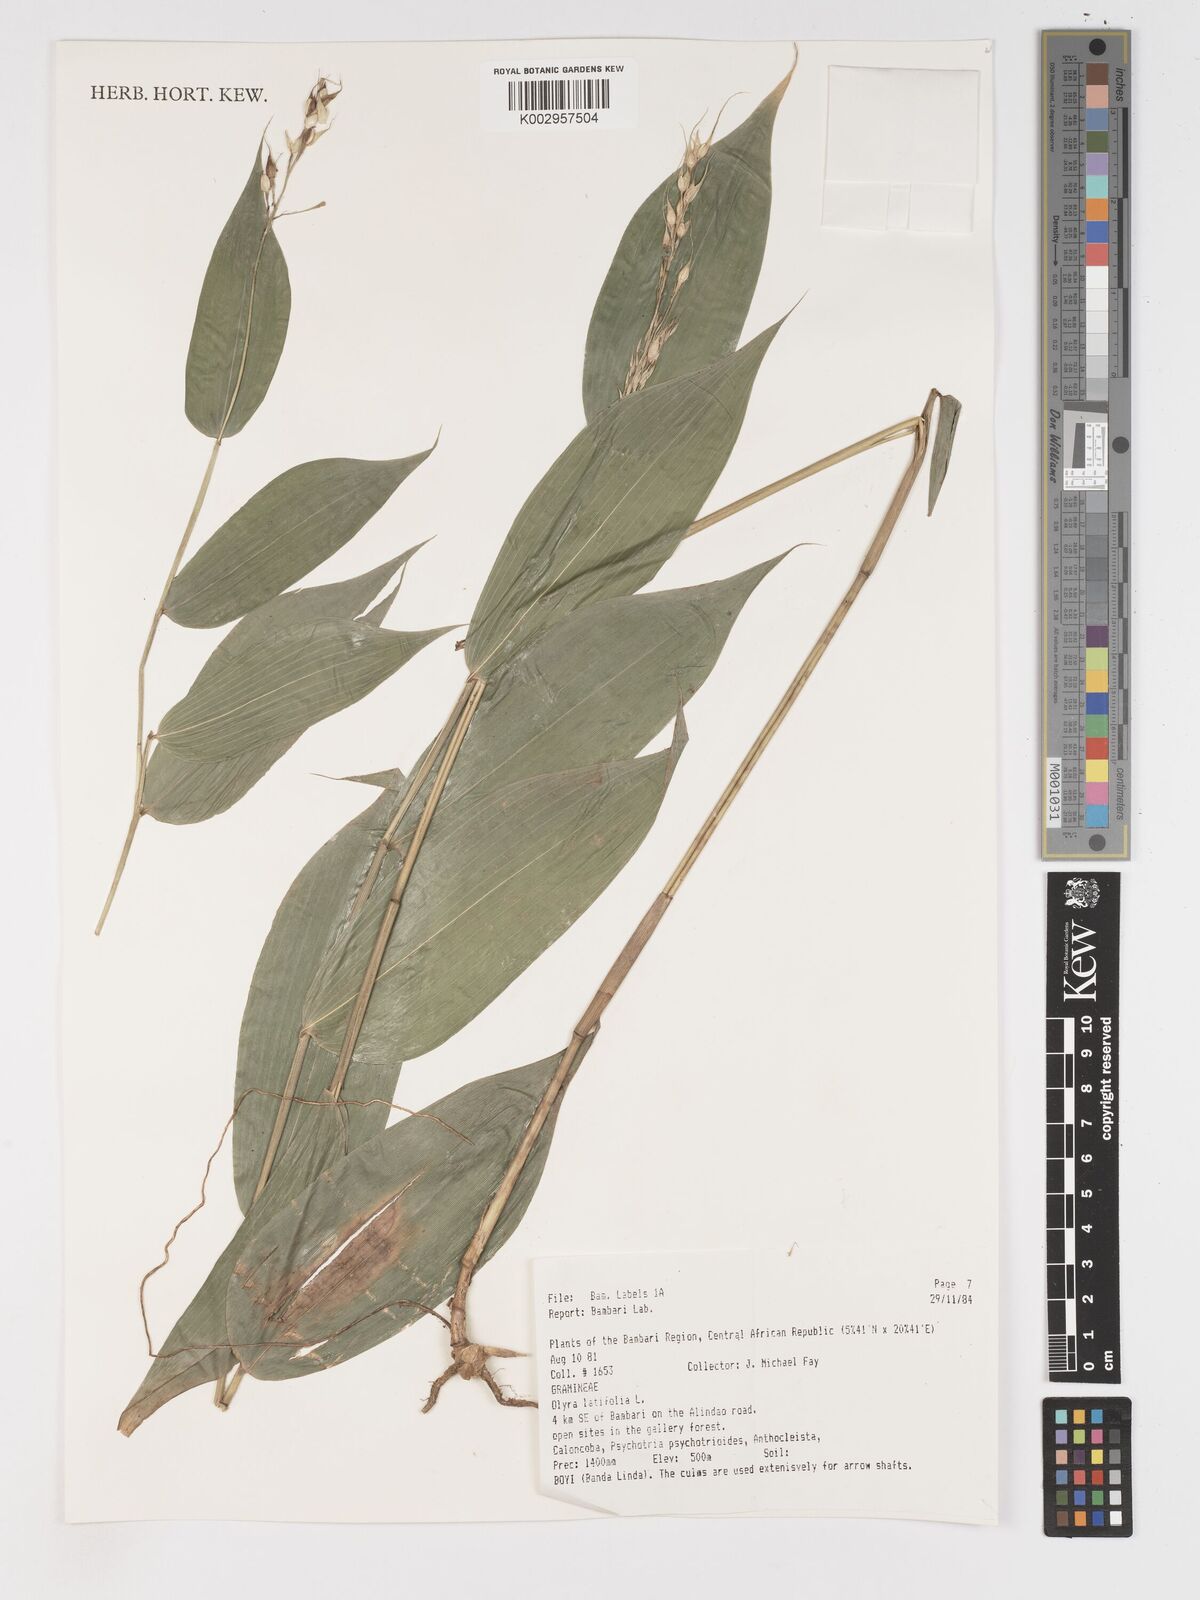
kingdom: Plantae
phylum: Tracheophyta
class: Liliopsida
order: Poales
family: Poaceae
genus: Olyra
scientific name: Olyra latifolia
